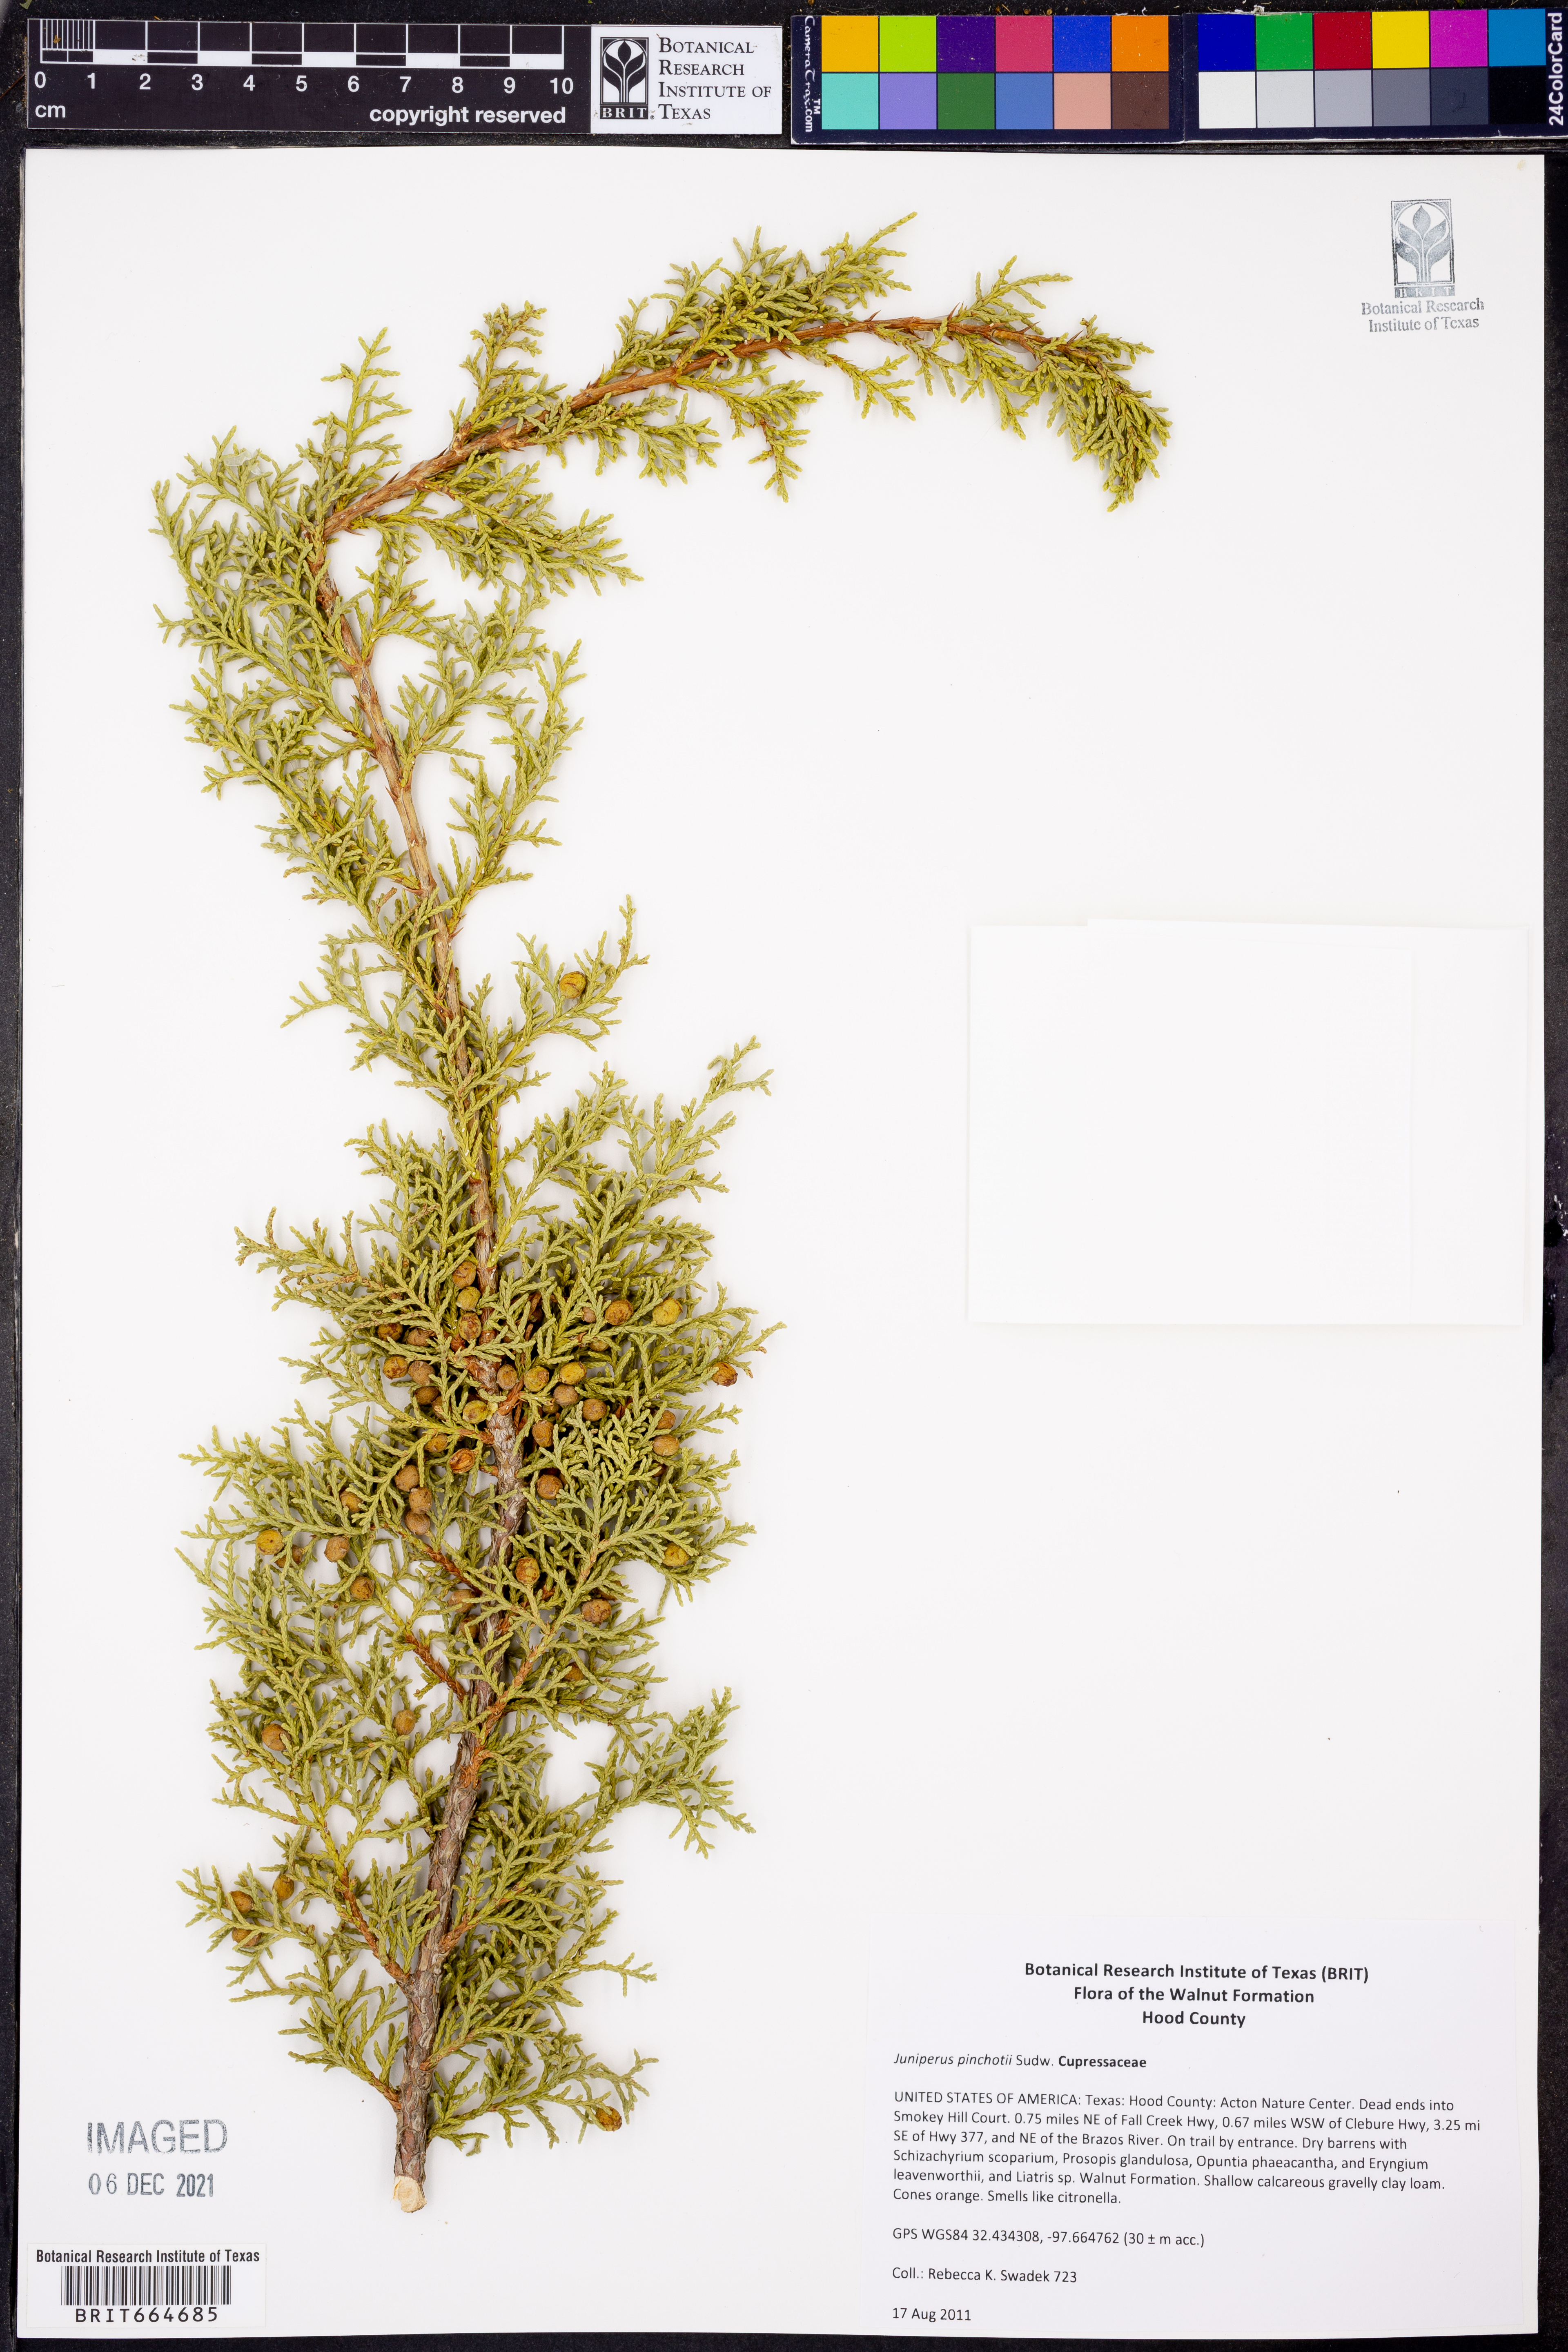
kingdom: Plantae
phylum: Tracheophyta
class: Pinopsida
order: Pinales
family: Cupressaceae
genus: Juniperus
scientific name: Juniperus pinchotii
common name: Pinchot juniper
